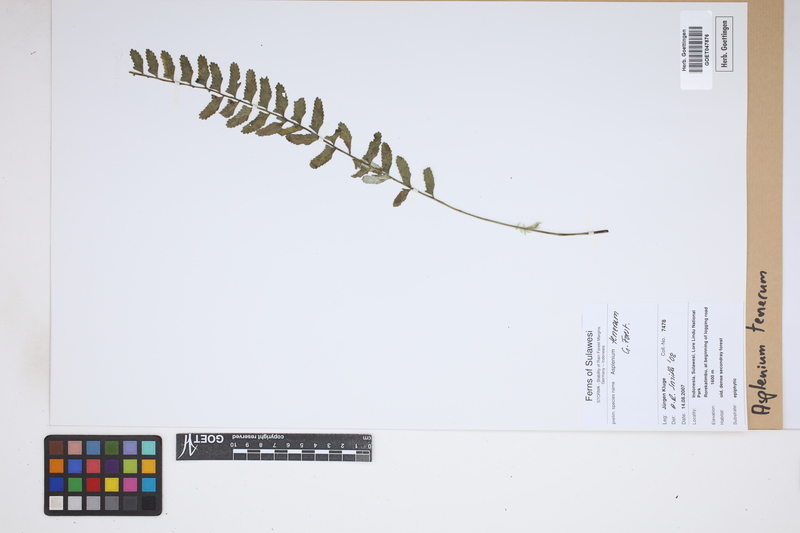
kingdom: Plantae
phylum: Tracheophyta
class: Polypodiopsida
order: Polypodiales
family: Aspleniaceae
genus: Asplenium
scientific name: Asplenium tenerum
